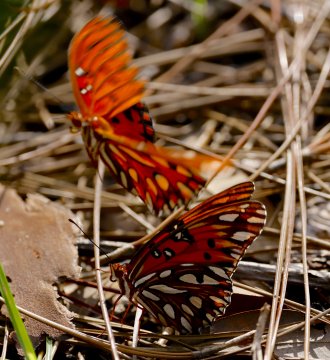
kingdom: Animalia
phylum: Arthropoda
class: Insecta
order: Lepidoptera
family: Nymphalidae
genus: Dione
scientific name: Dione vanillae
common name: Gulf Fritillary
